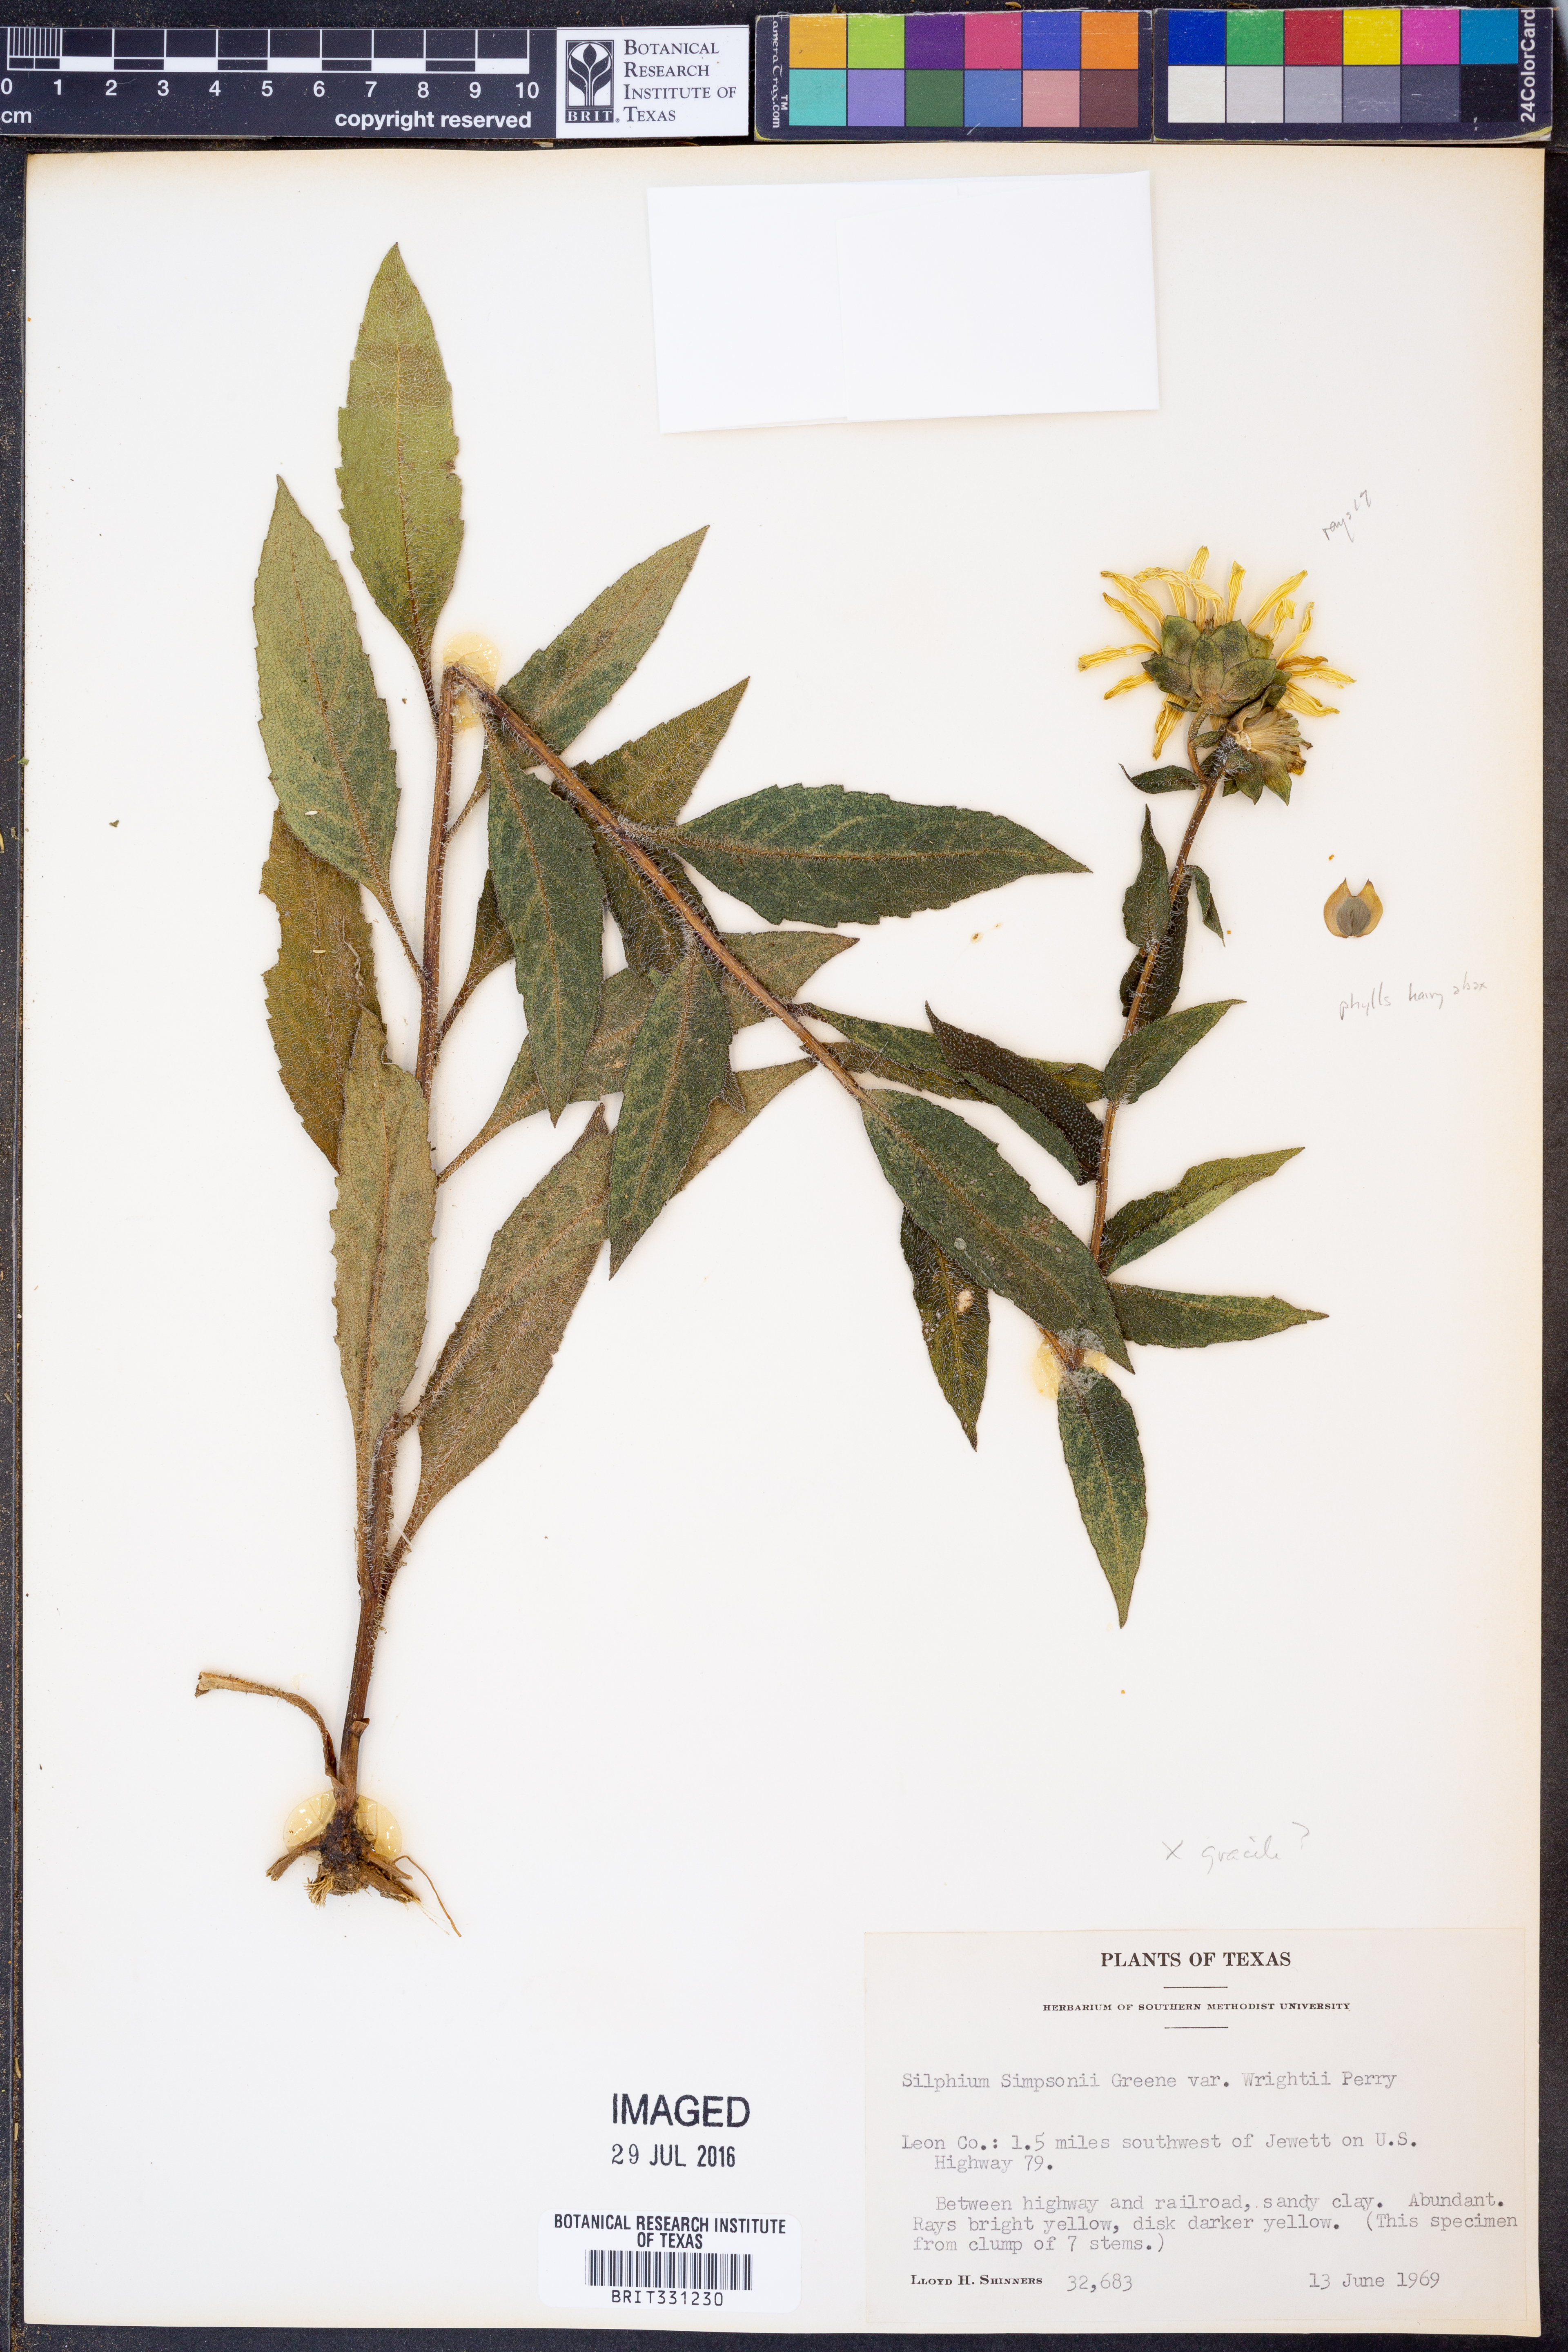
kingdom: Plantae
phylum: Tracheophyta
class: Magnoliopsida
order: Asterales
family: Asteraceae
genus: Silphium
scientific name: Silphium radula
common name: Roughleaf rosinweed
